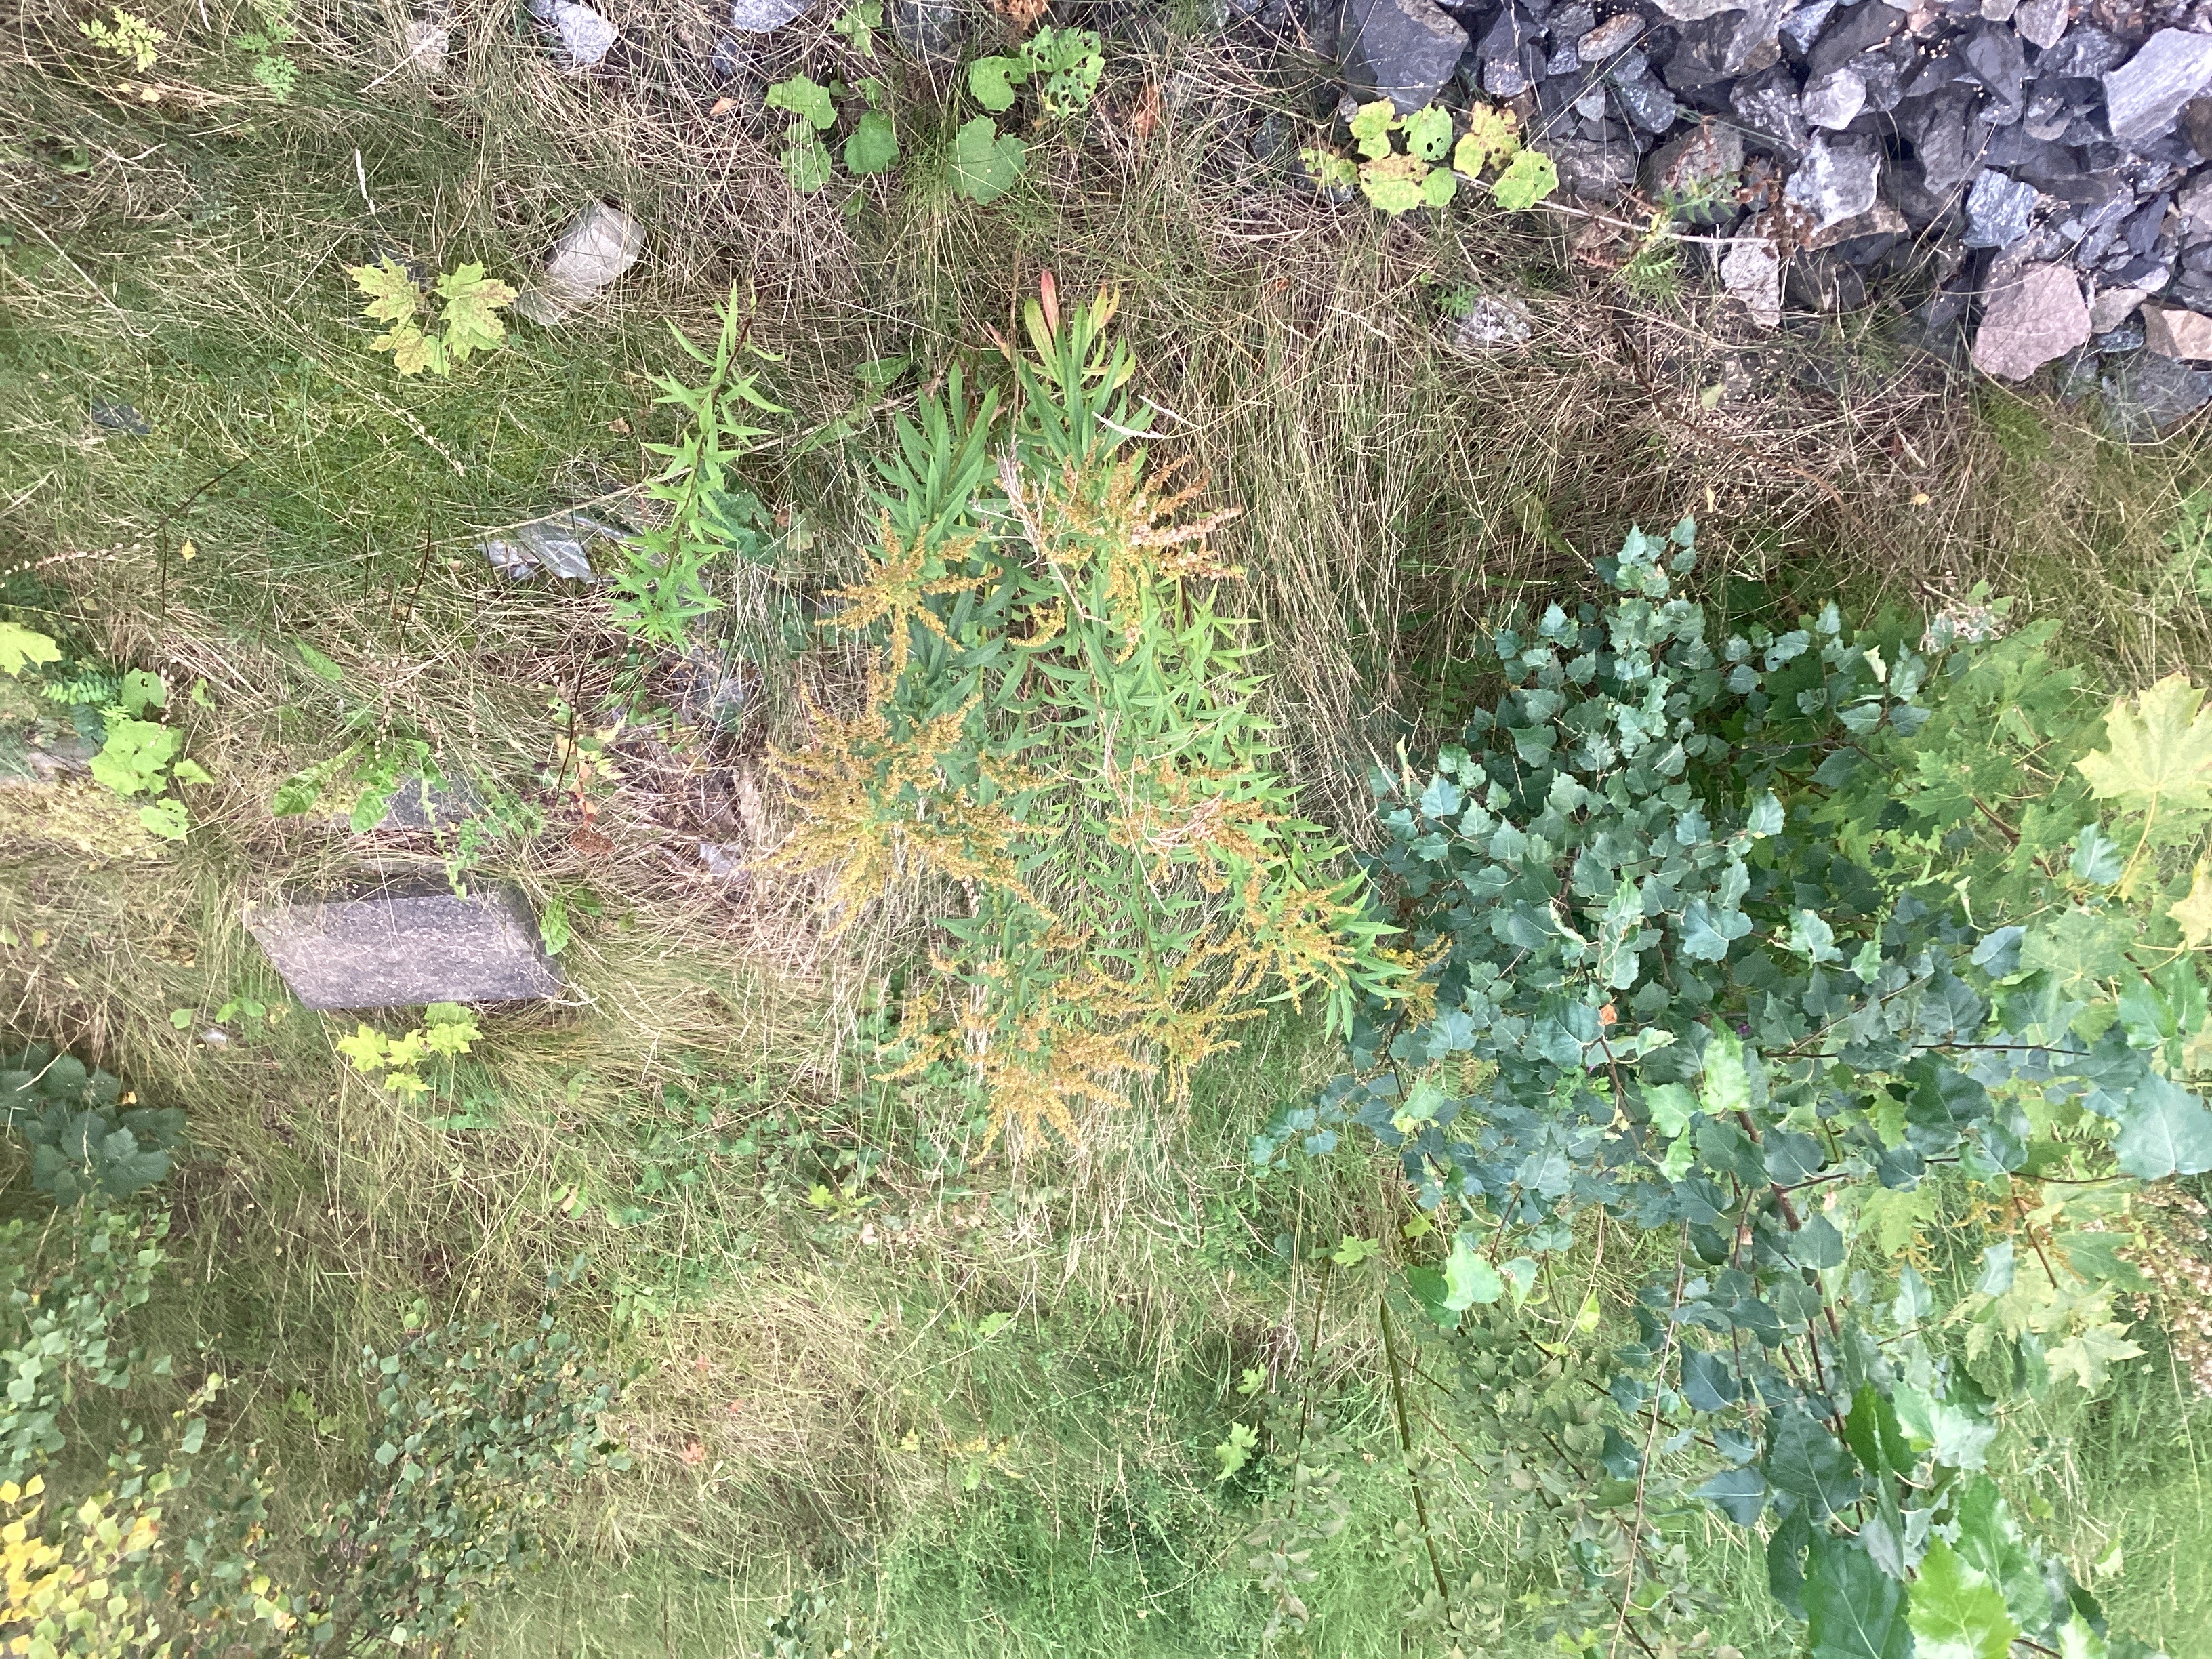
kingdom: Plantae
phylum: Tracheophyta
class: Magnoliopsida
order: Asterales
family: Asteraceae
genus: Solidago
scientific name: Solidago canadensis
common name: kanadagullris
